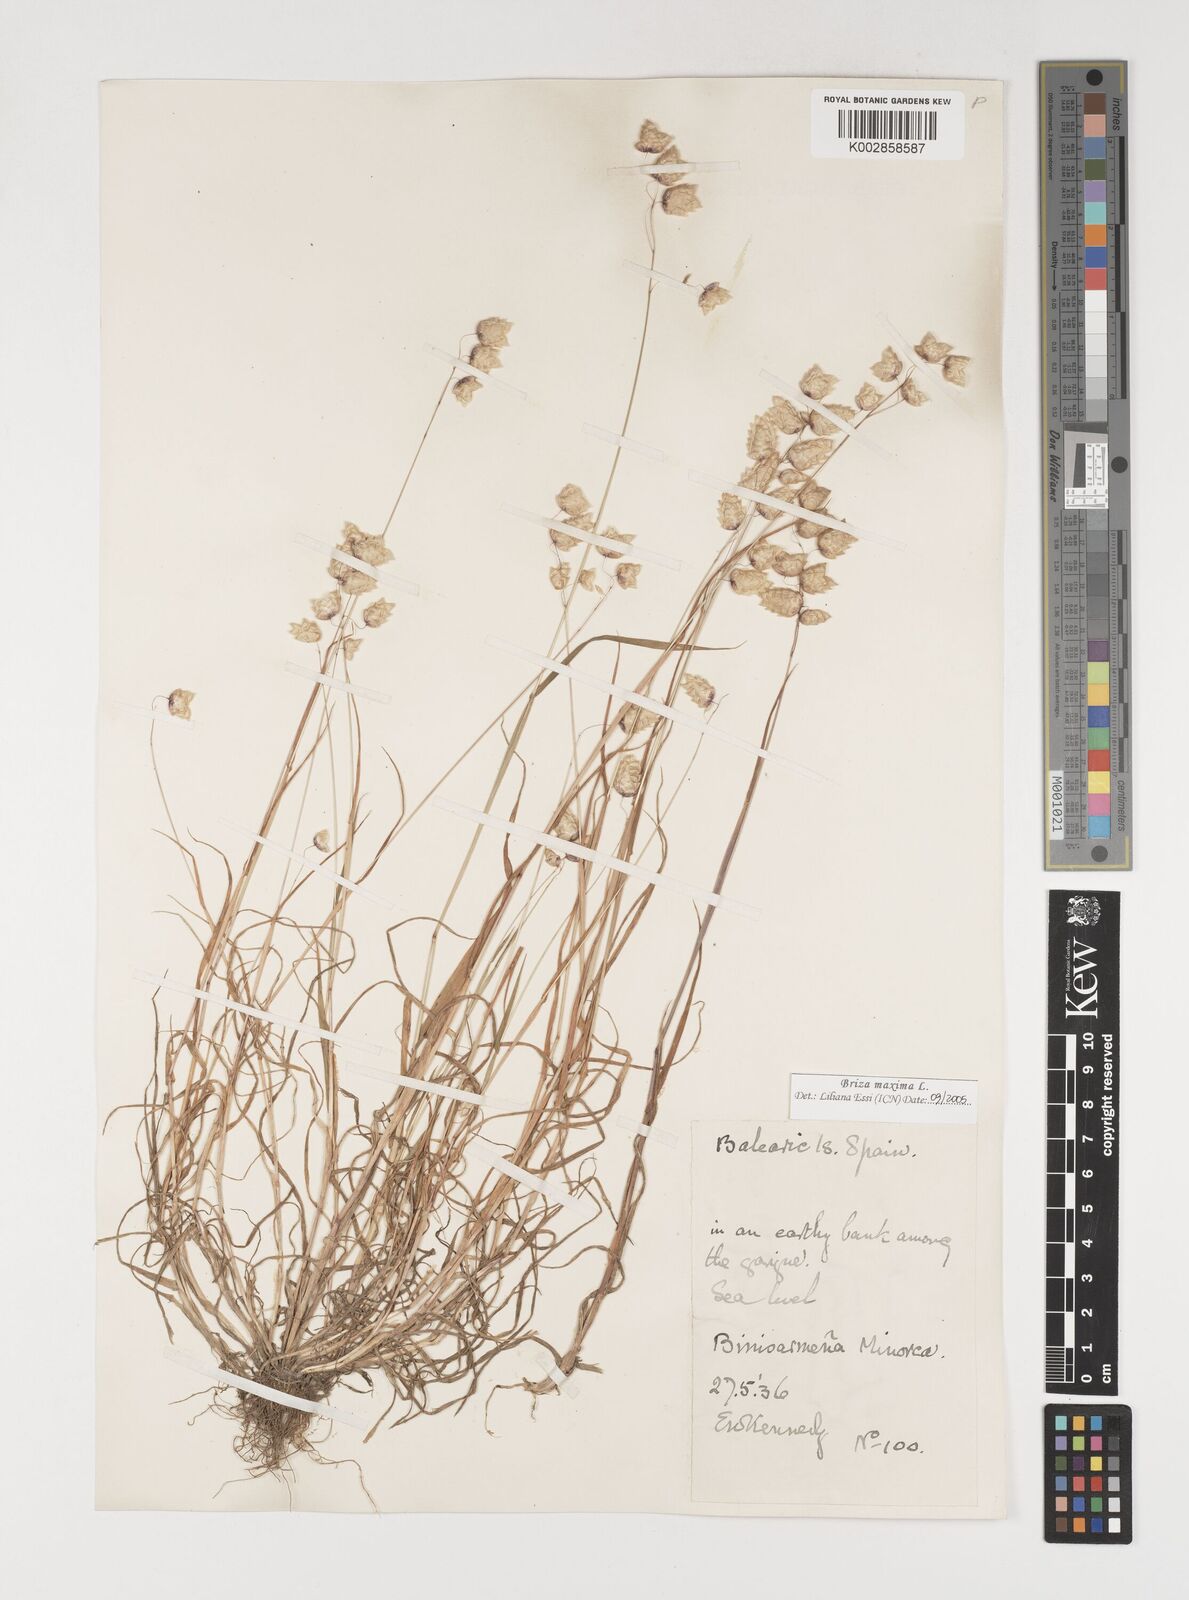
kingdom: Plantae
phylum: Tracheophyta
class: Liliopsida
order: Poales
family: Poaceae
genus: Briza
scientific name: Briza maxima
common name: Big quakinggrass
